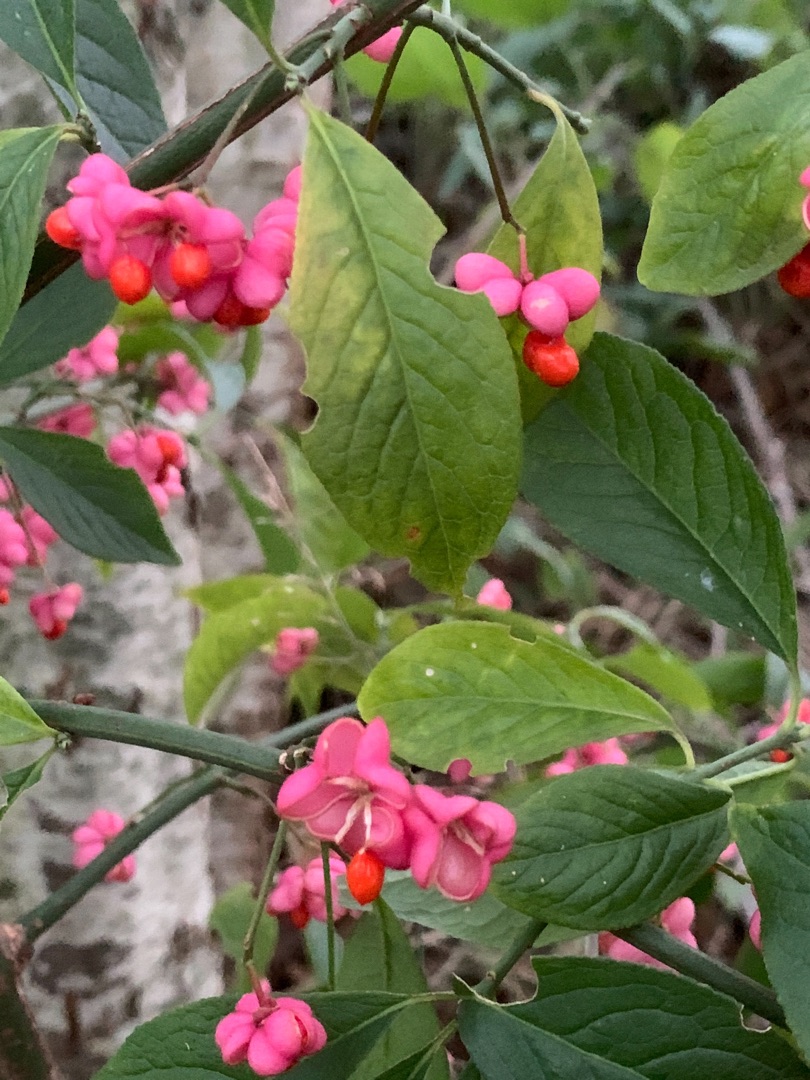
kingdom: Plantae
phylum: Tracheophyta
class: Magnoliopsida
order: Celastrales
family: Celastraceae
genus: Euonymus
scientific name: Euonymus europaeus
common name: Benved
